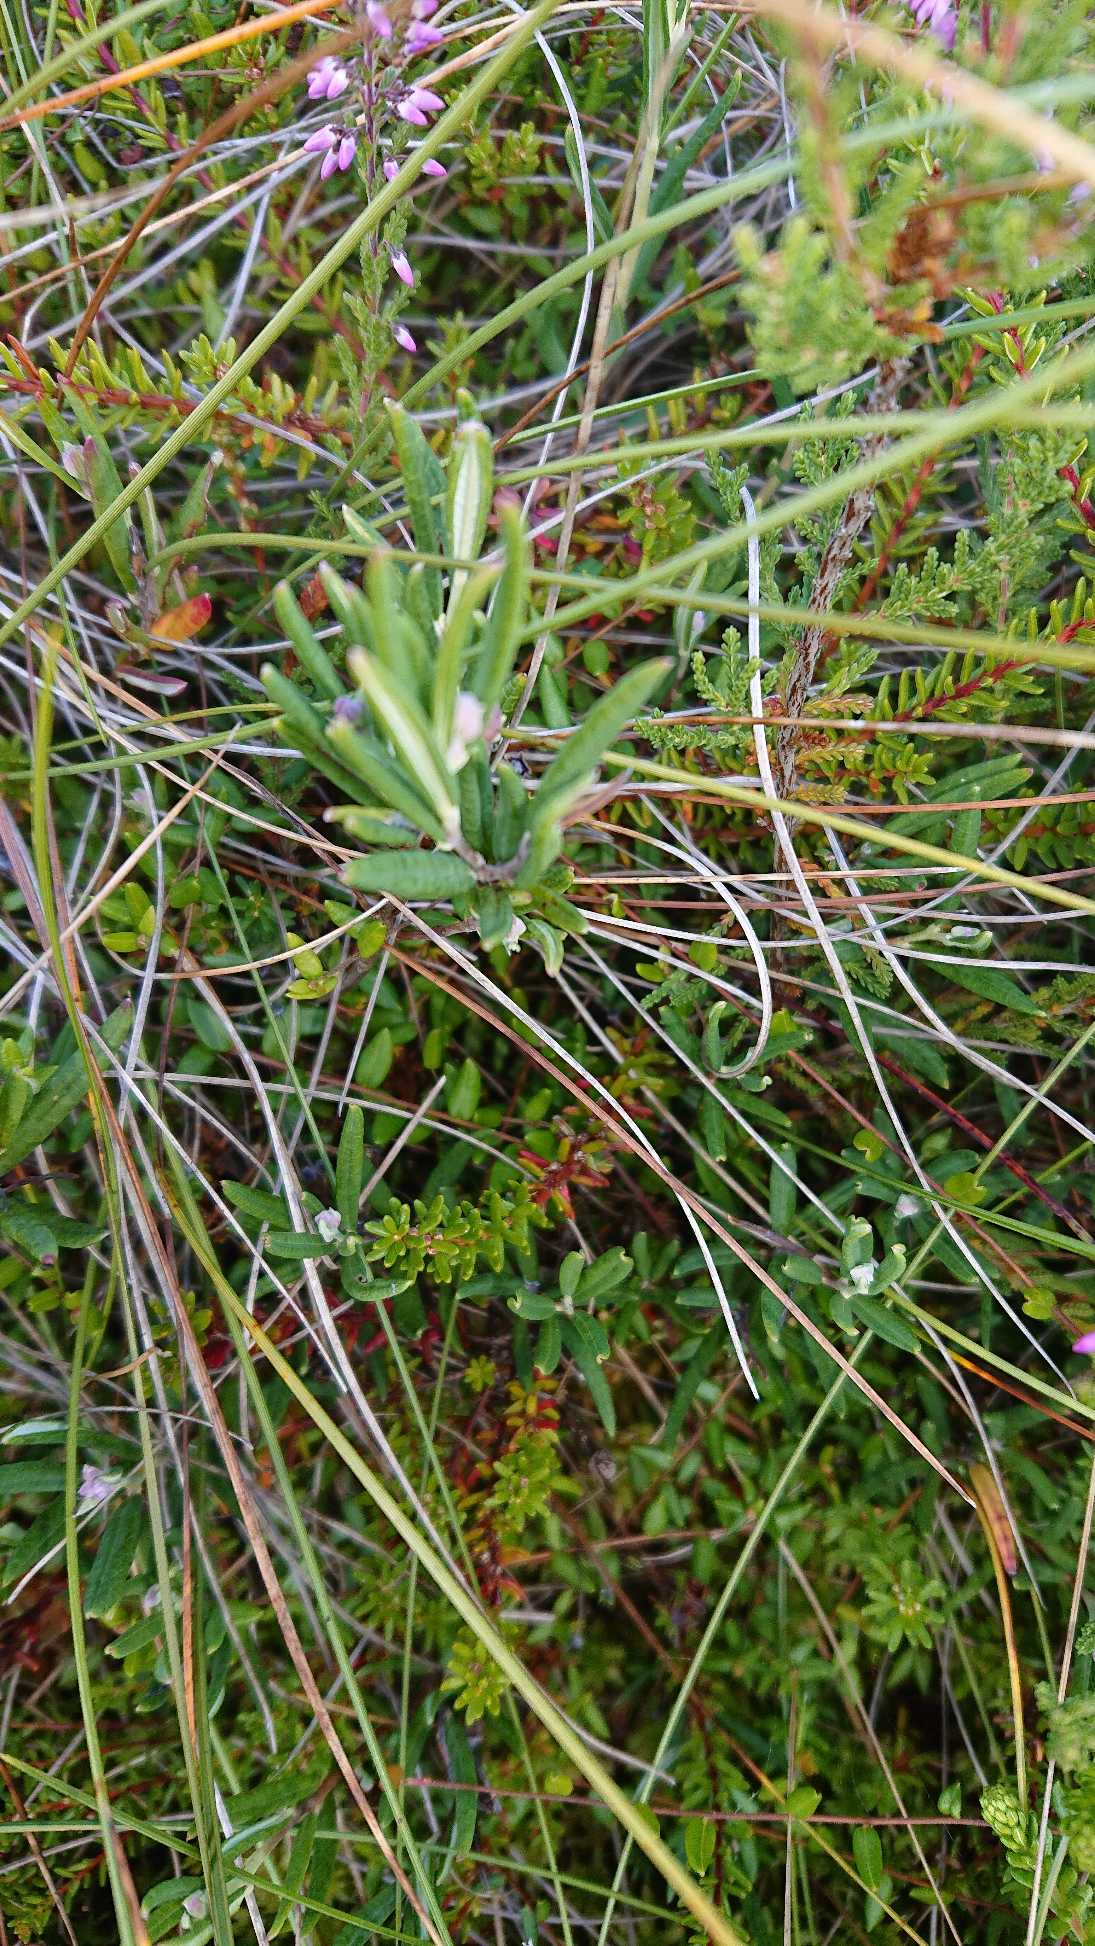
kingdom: Plantae
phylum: Tracheophyta
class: Magnoliopsida
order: Ericales
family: Ericaceae
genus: Andromeda
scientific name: Andromeda polifolia
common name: Rosmarinlyng
